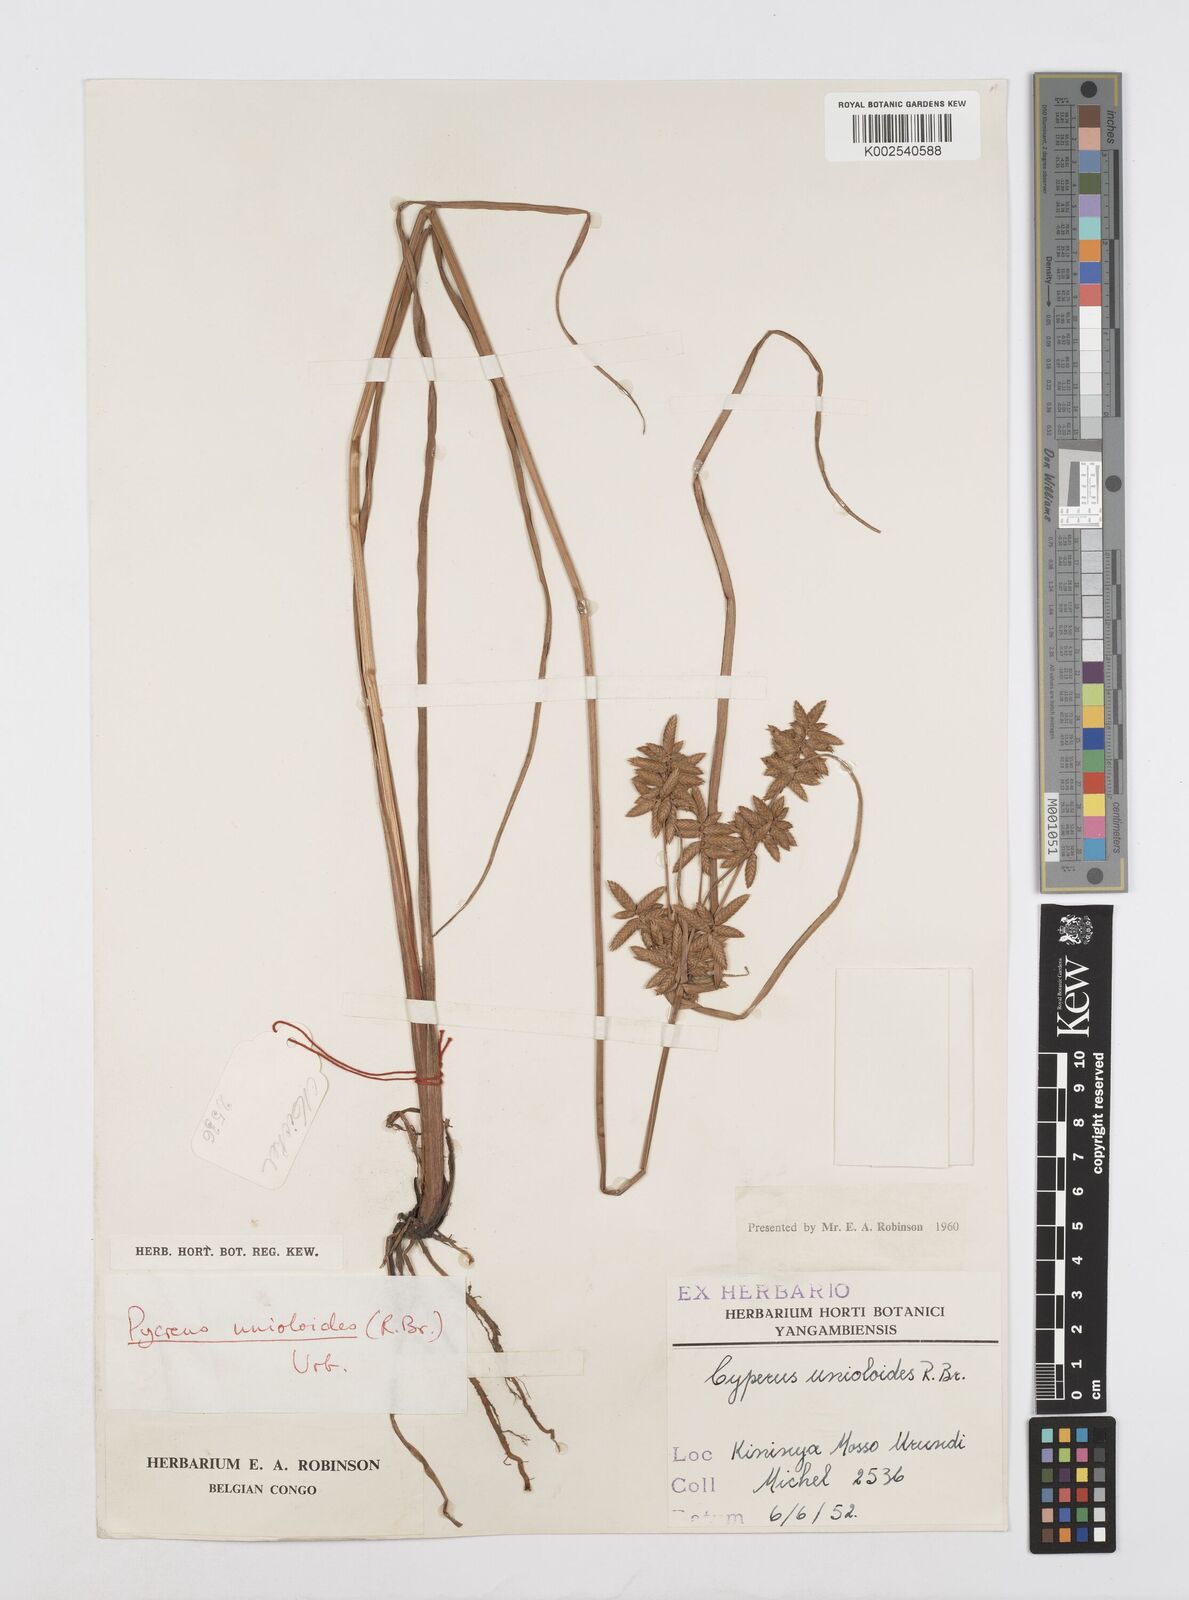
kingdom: Plantae
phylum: Tracheophyta
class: Liliopsida
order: Poales
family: Cyperaceae
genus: Cyperus
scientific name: Cyperus unioloides
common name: Uniola flatsedge
